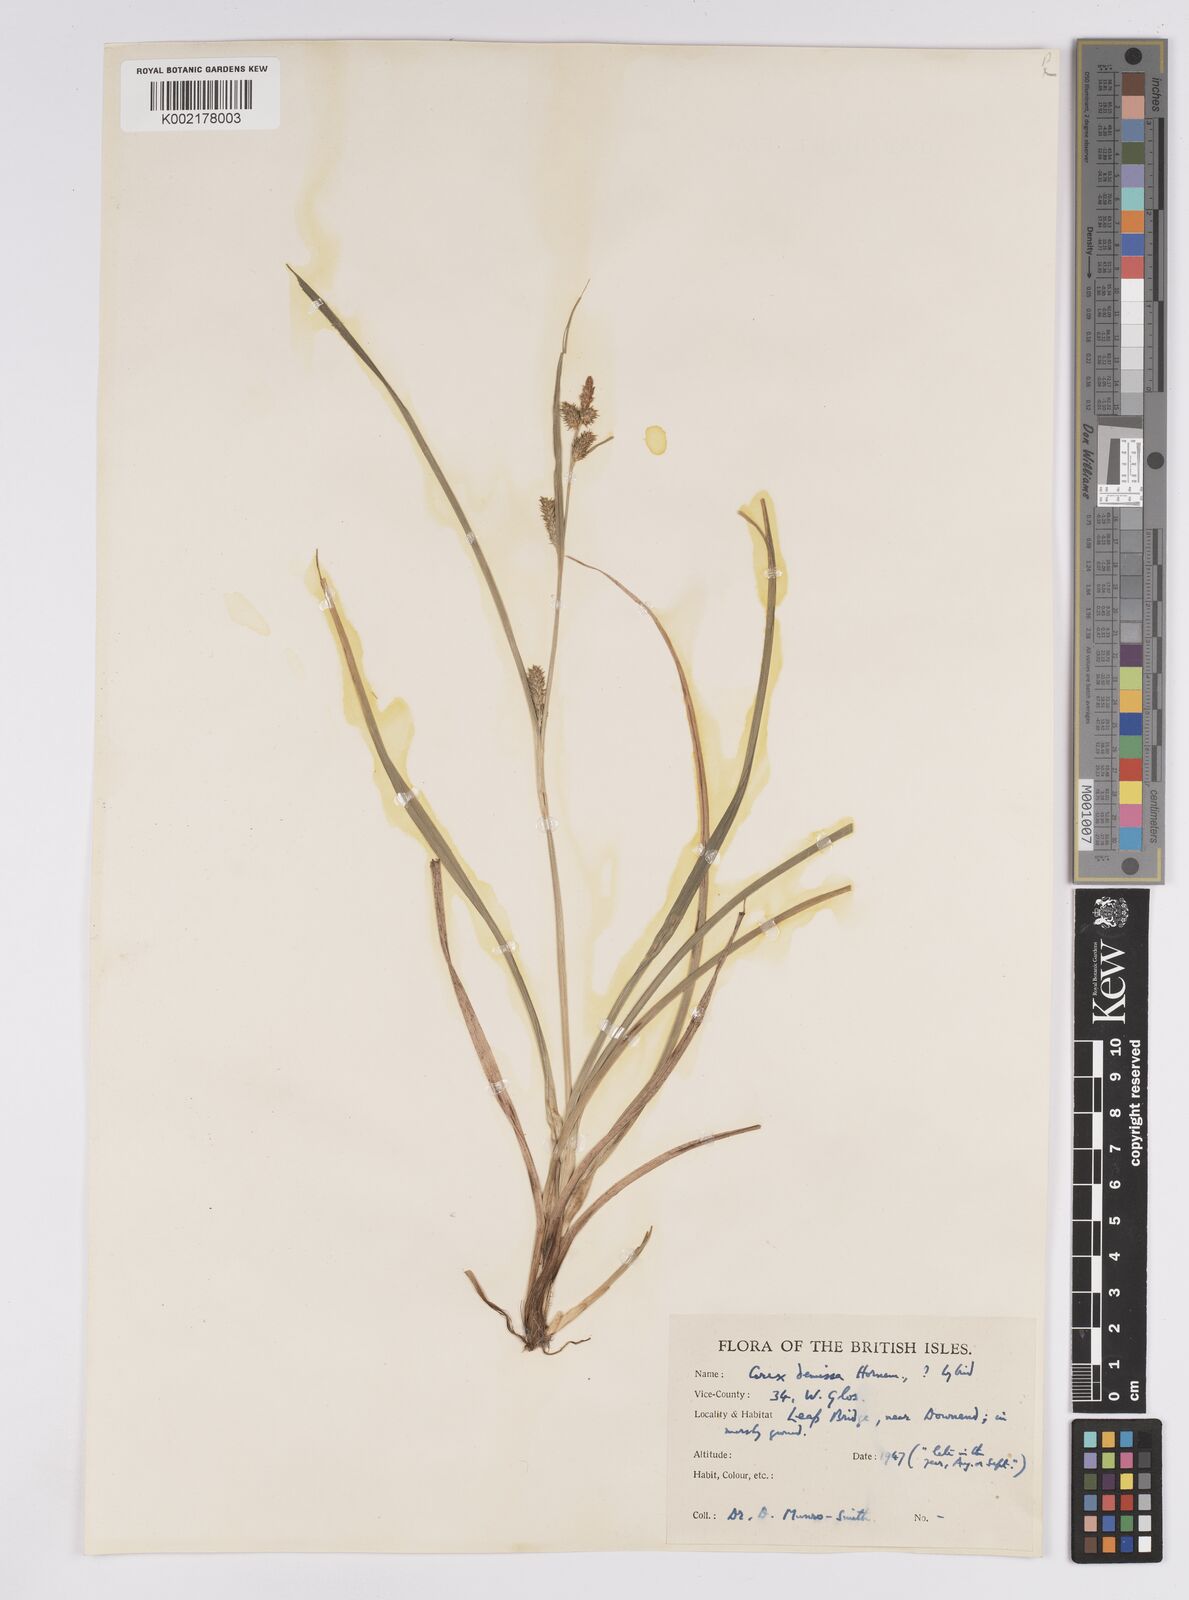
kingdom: Plantae
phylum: Tracheophyta
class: Liliopsida
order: Poales
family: Cyperaceae
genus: Carex
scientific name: Carex demissa
